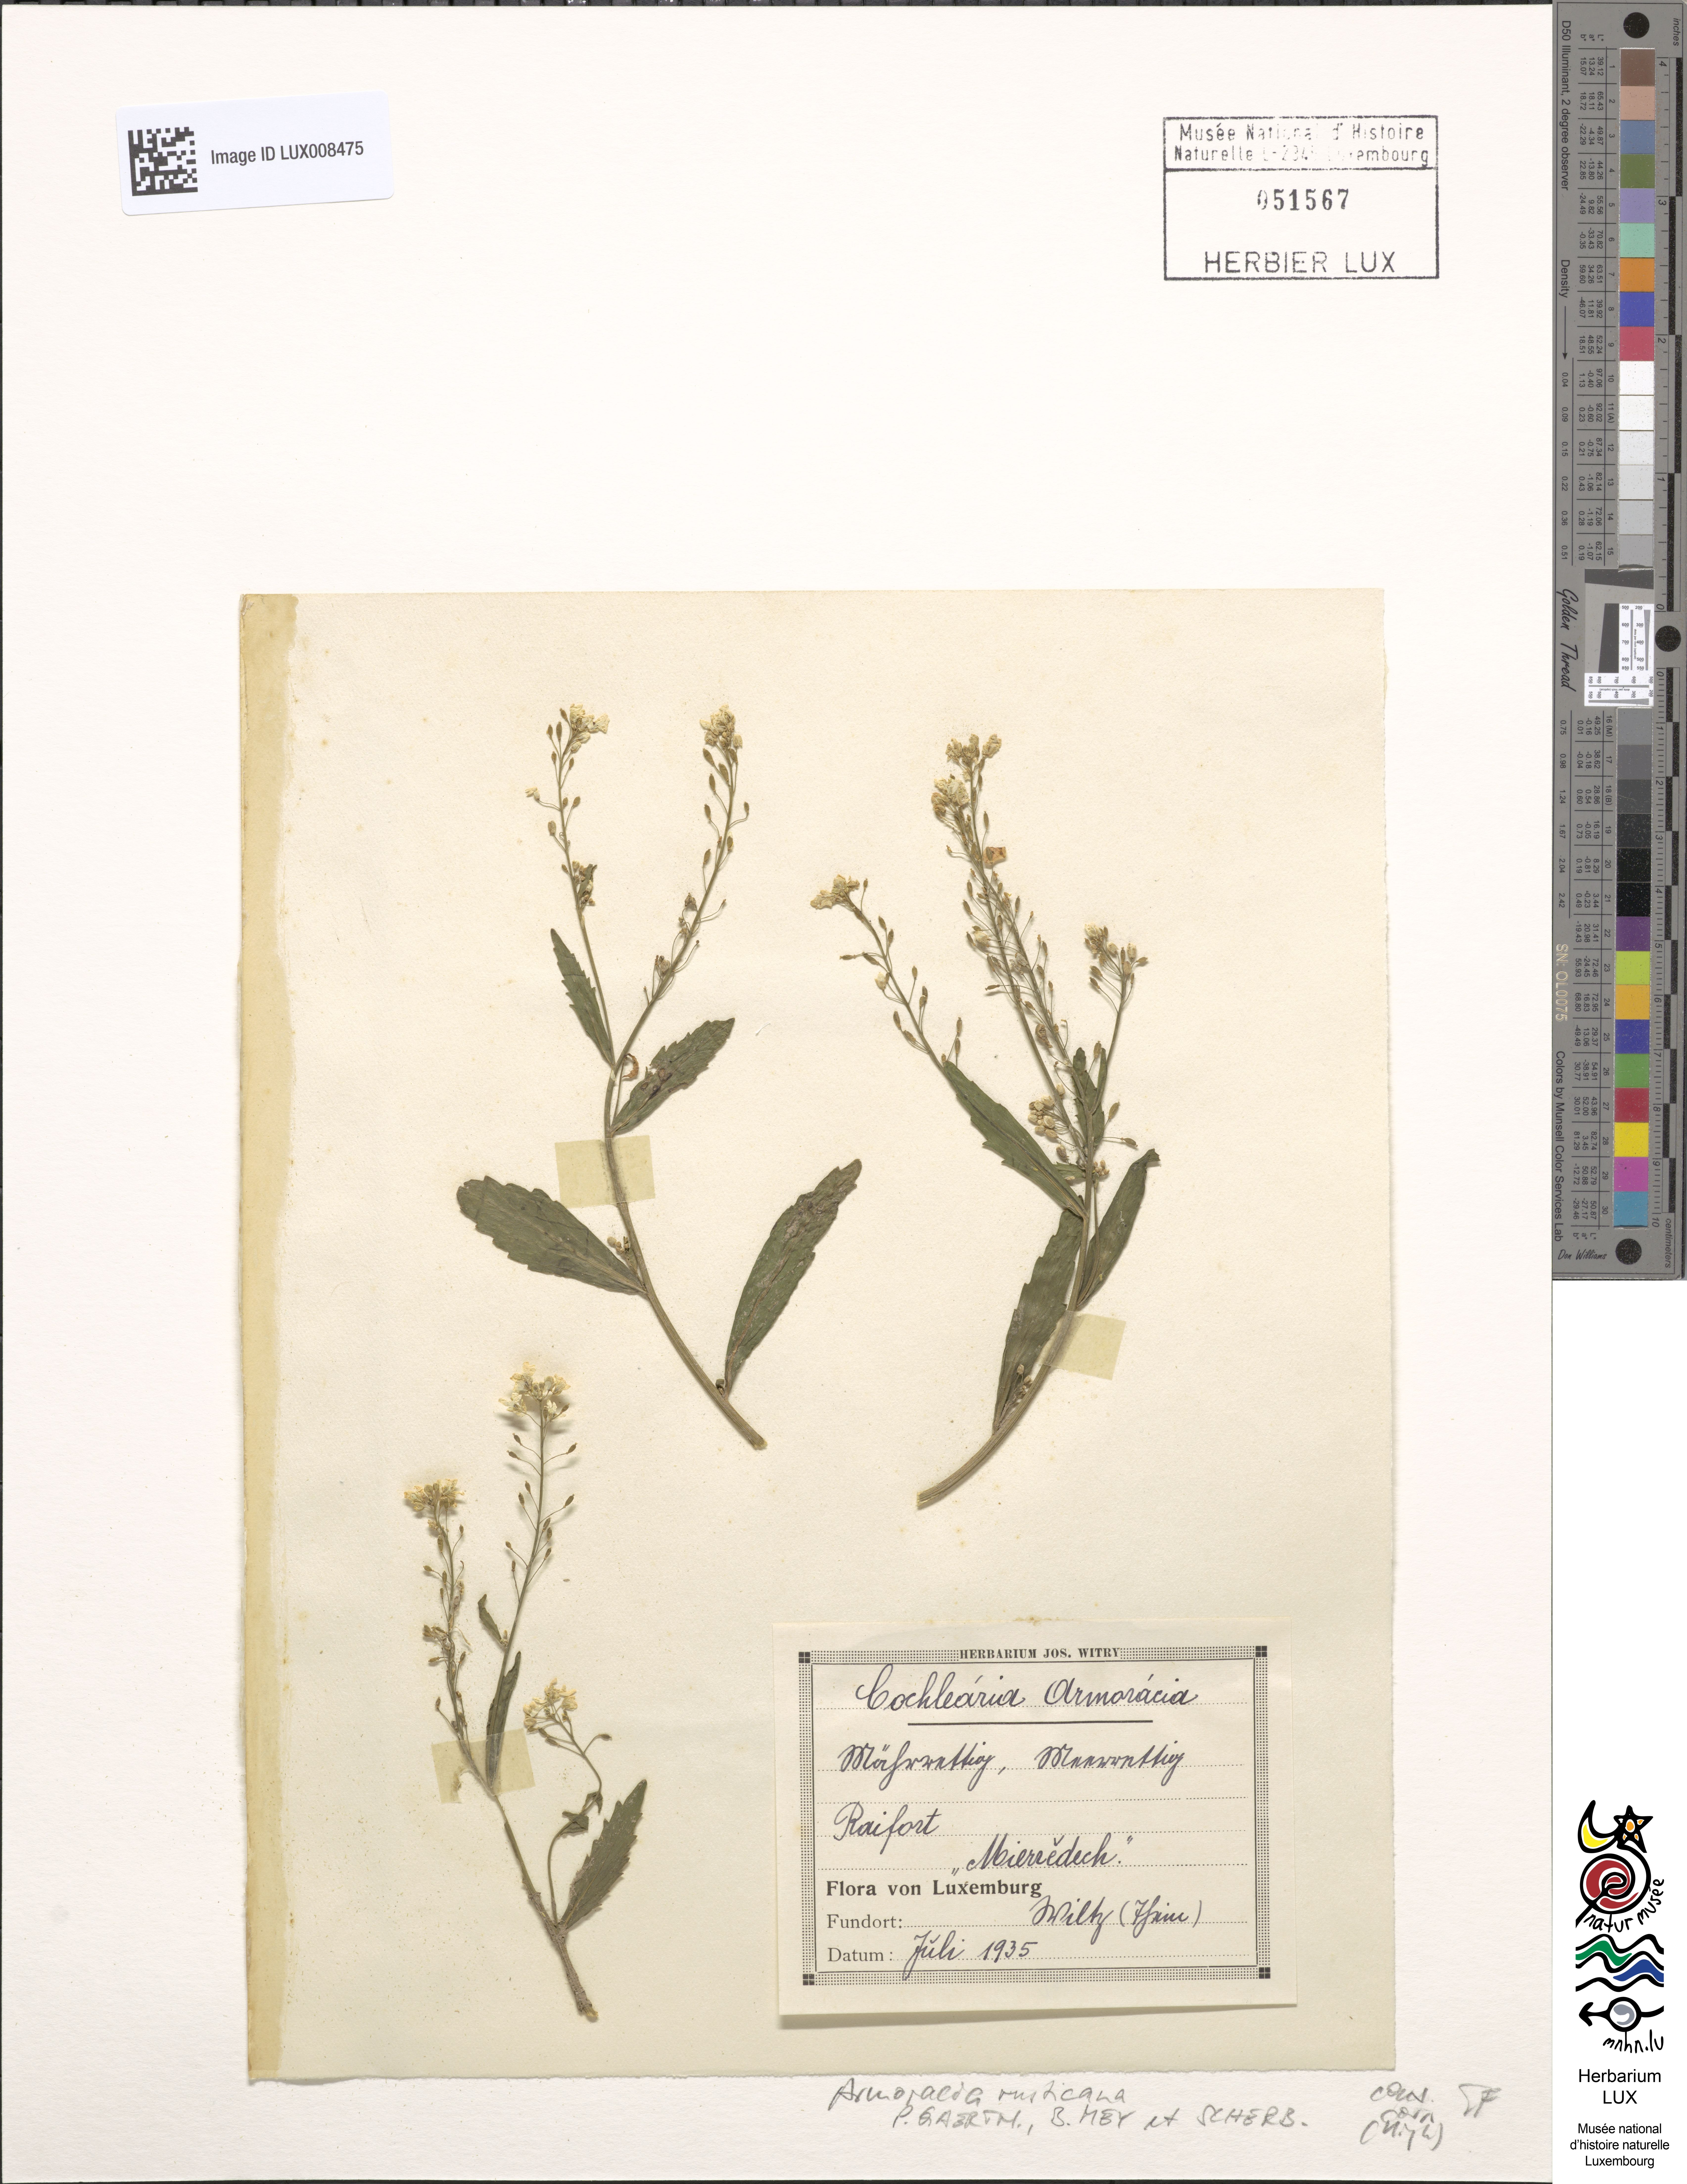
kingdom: Plantae
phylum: Tracheophyta
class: Magnoliopsida
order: Brassicales
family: Brassicaceae
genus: Armoracia
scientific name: Armoracia rusticana
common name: Horseradish
